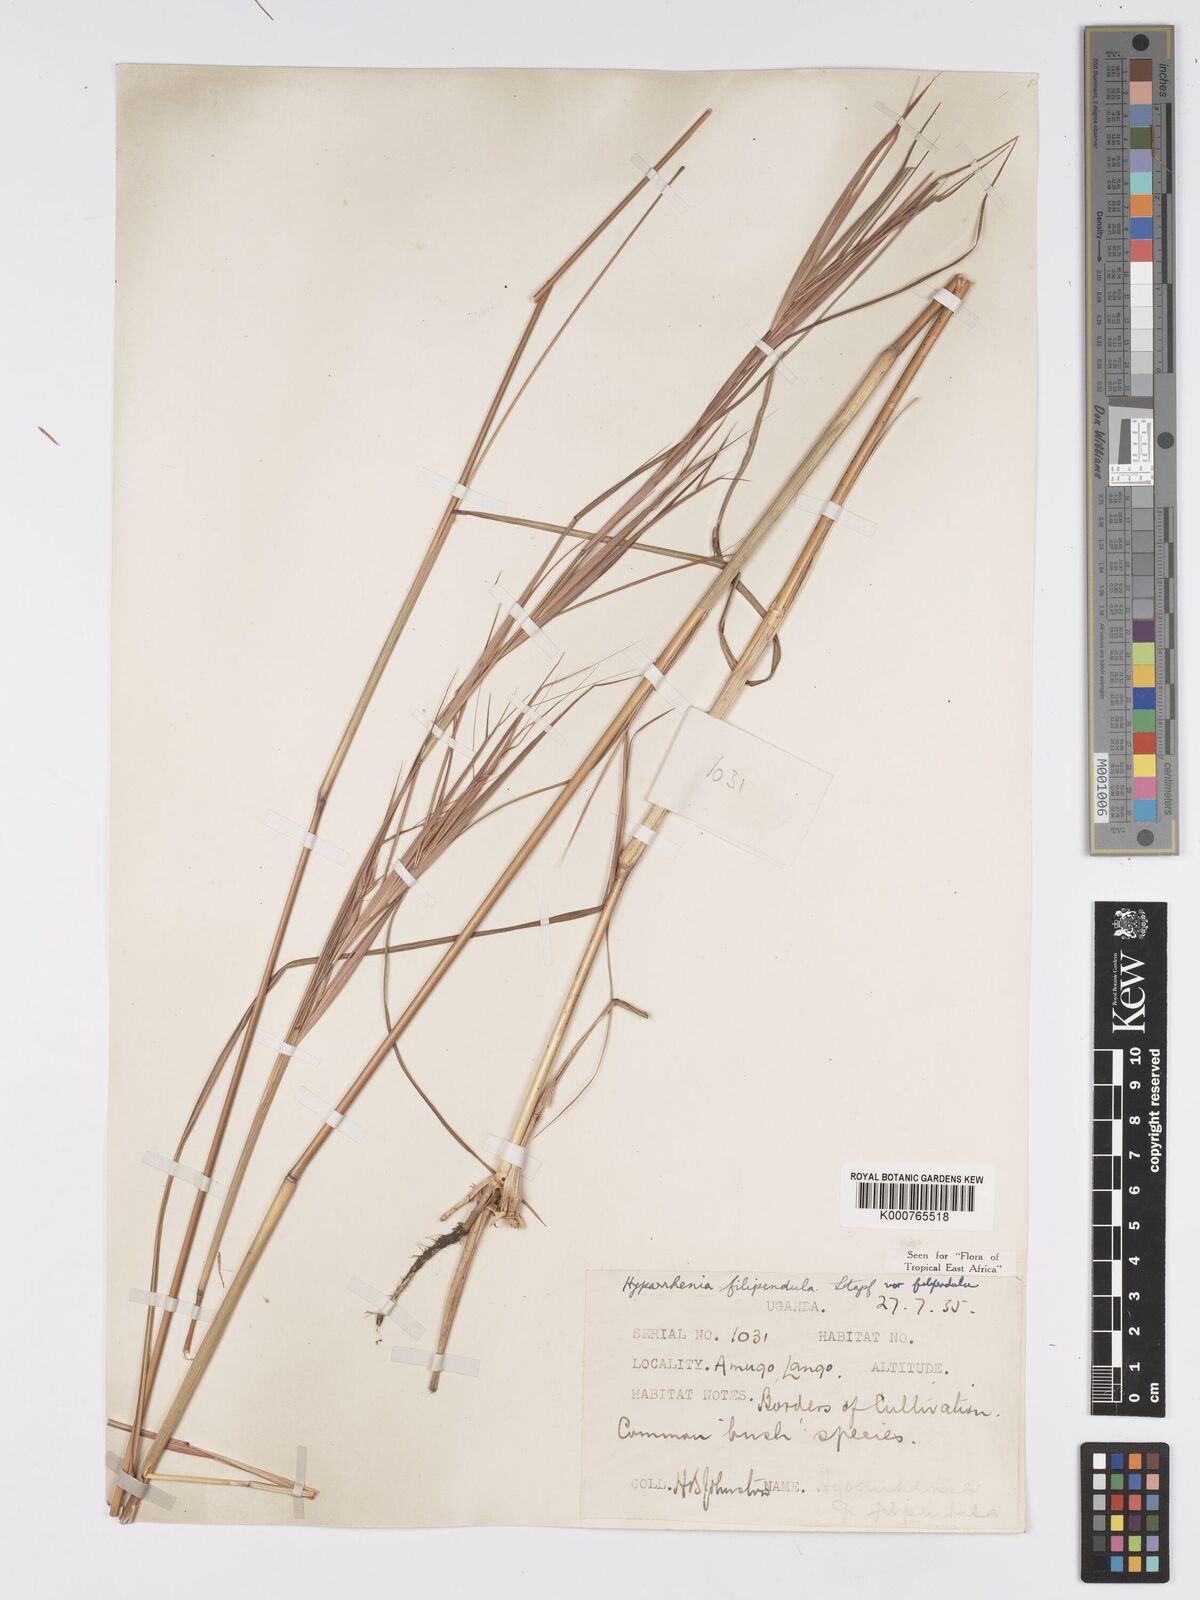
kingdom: Plantae
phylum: Tracheophyta
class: Liliopsida
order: Poales
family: Poaceae
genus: Hyparrhenia
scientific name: Hyparrhenia filipendula
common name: Tambookie grass
